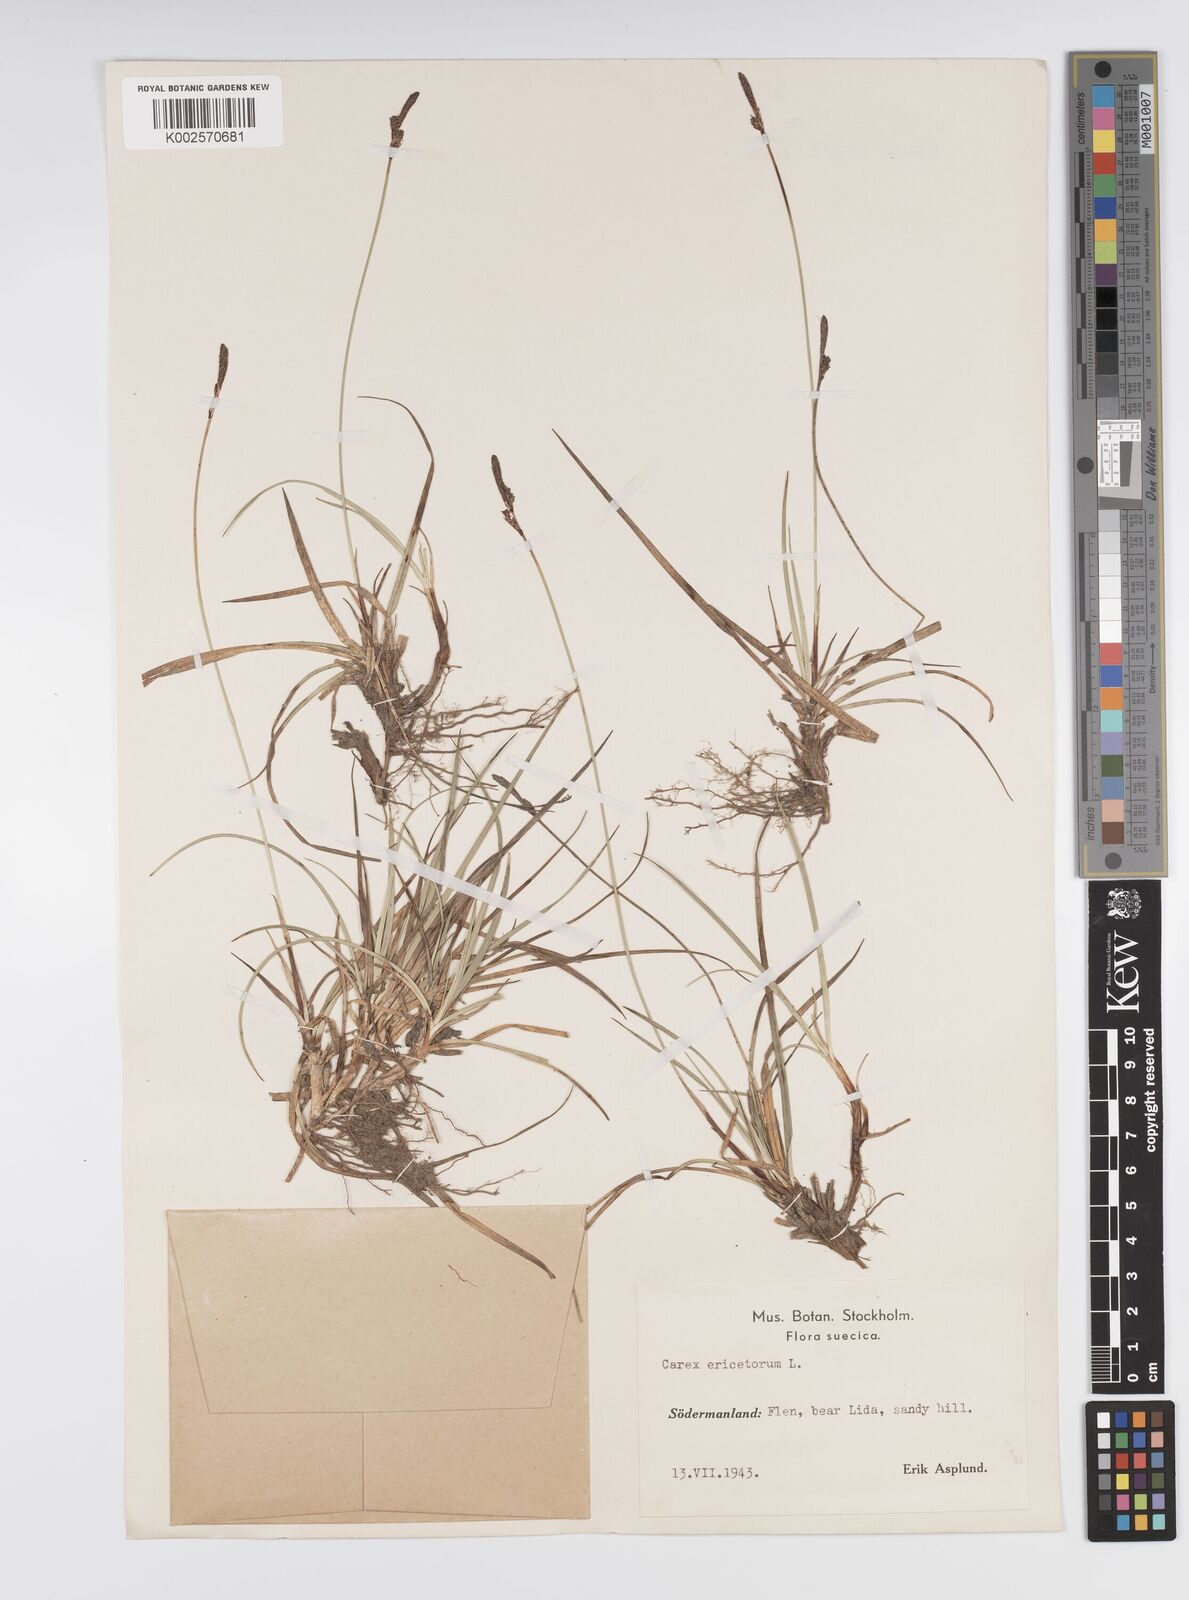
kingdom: Plantae
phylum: Tracheophyta
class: Liliopsida
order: Poales
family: Cyperaceae
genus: Carex
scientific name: Carex ericetorum
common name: Rare spring-sedge
